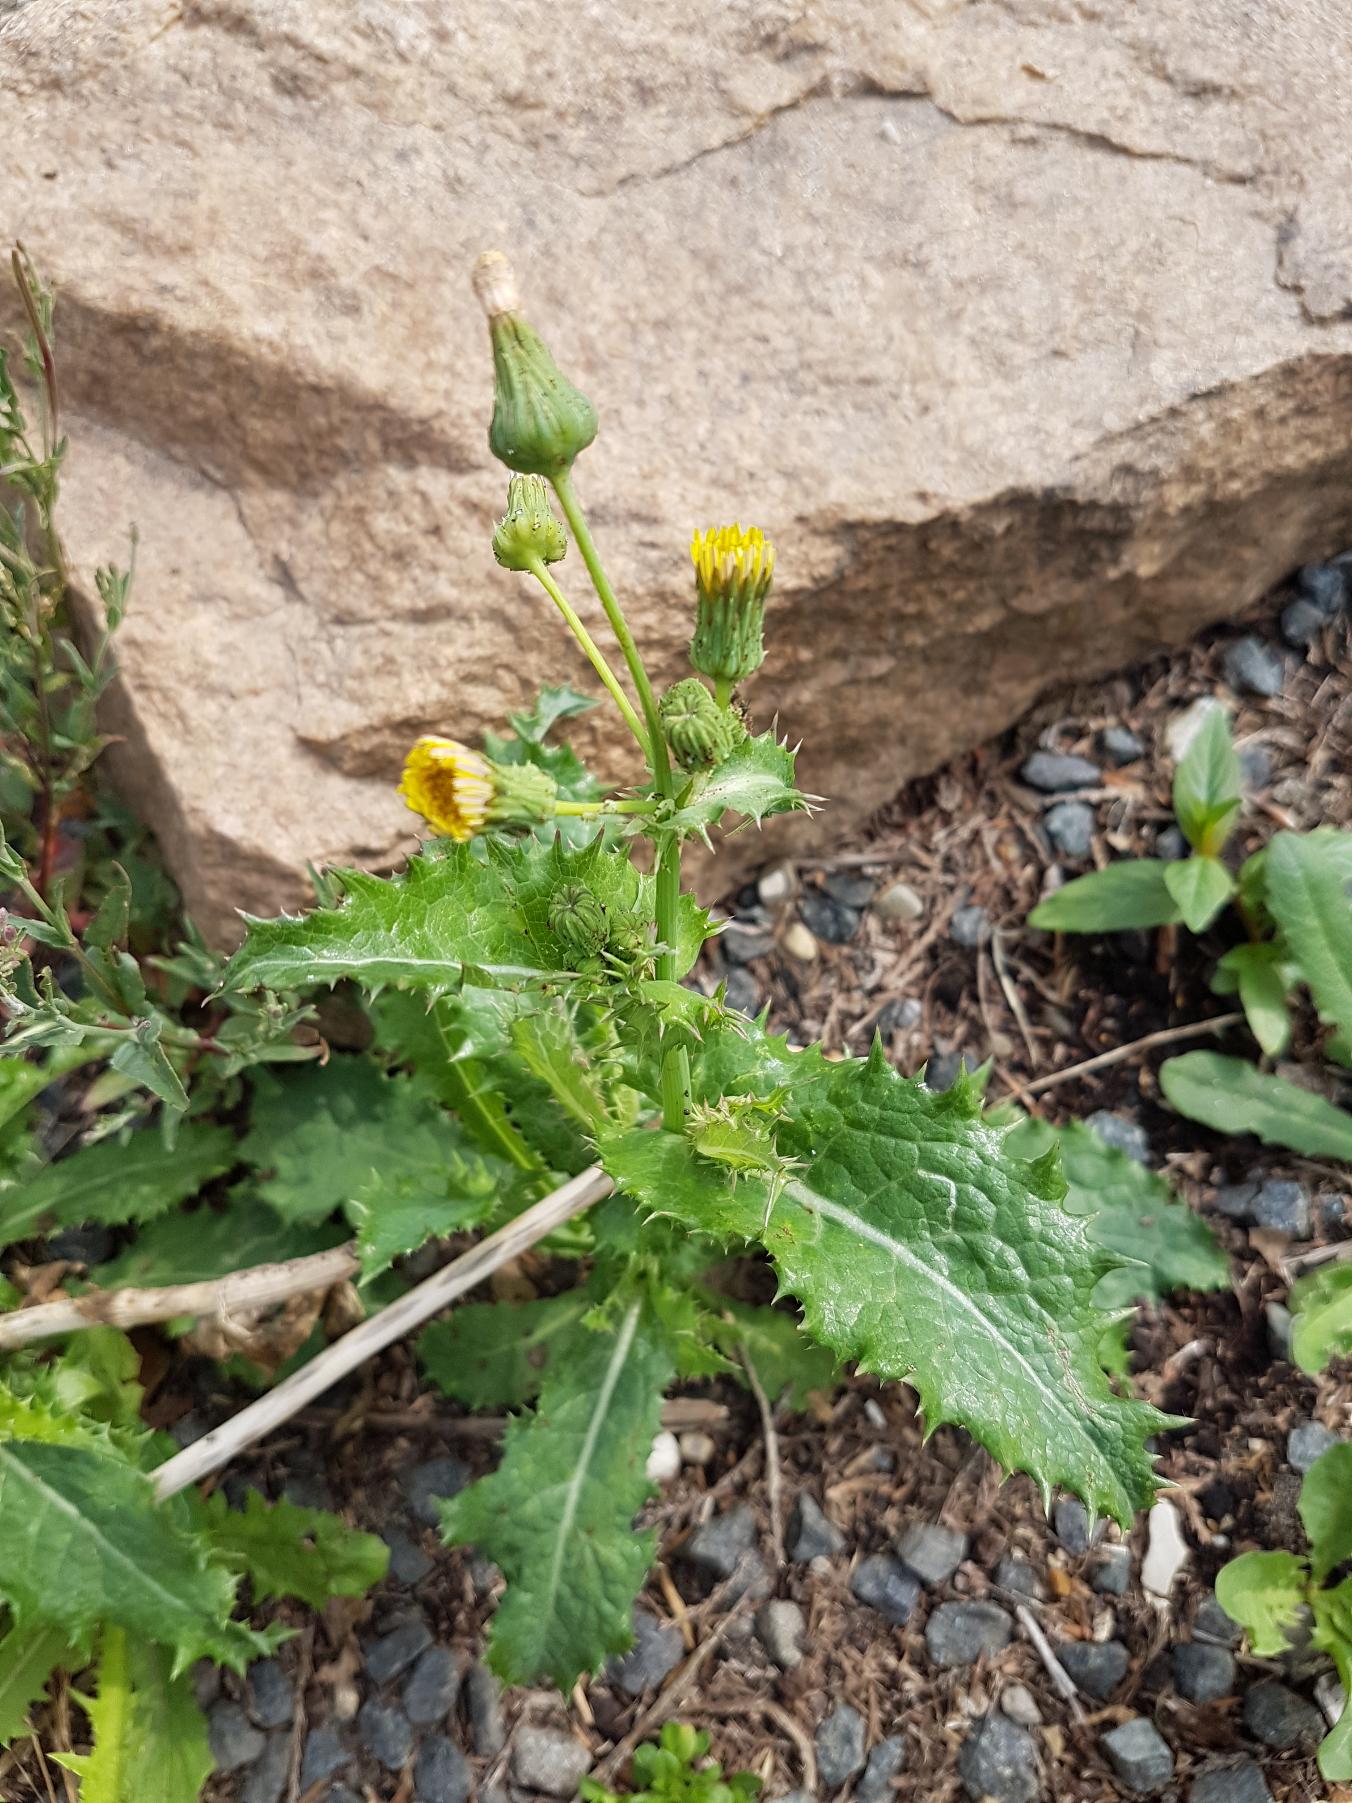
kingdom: Plantae
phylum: Tracheophyta
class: Magnoliopsida
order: Asterales
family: Asteraceae
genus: Sonchus
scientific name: Sonchus asper
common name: Ru svinemælk
